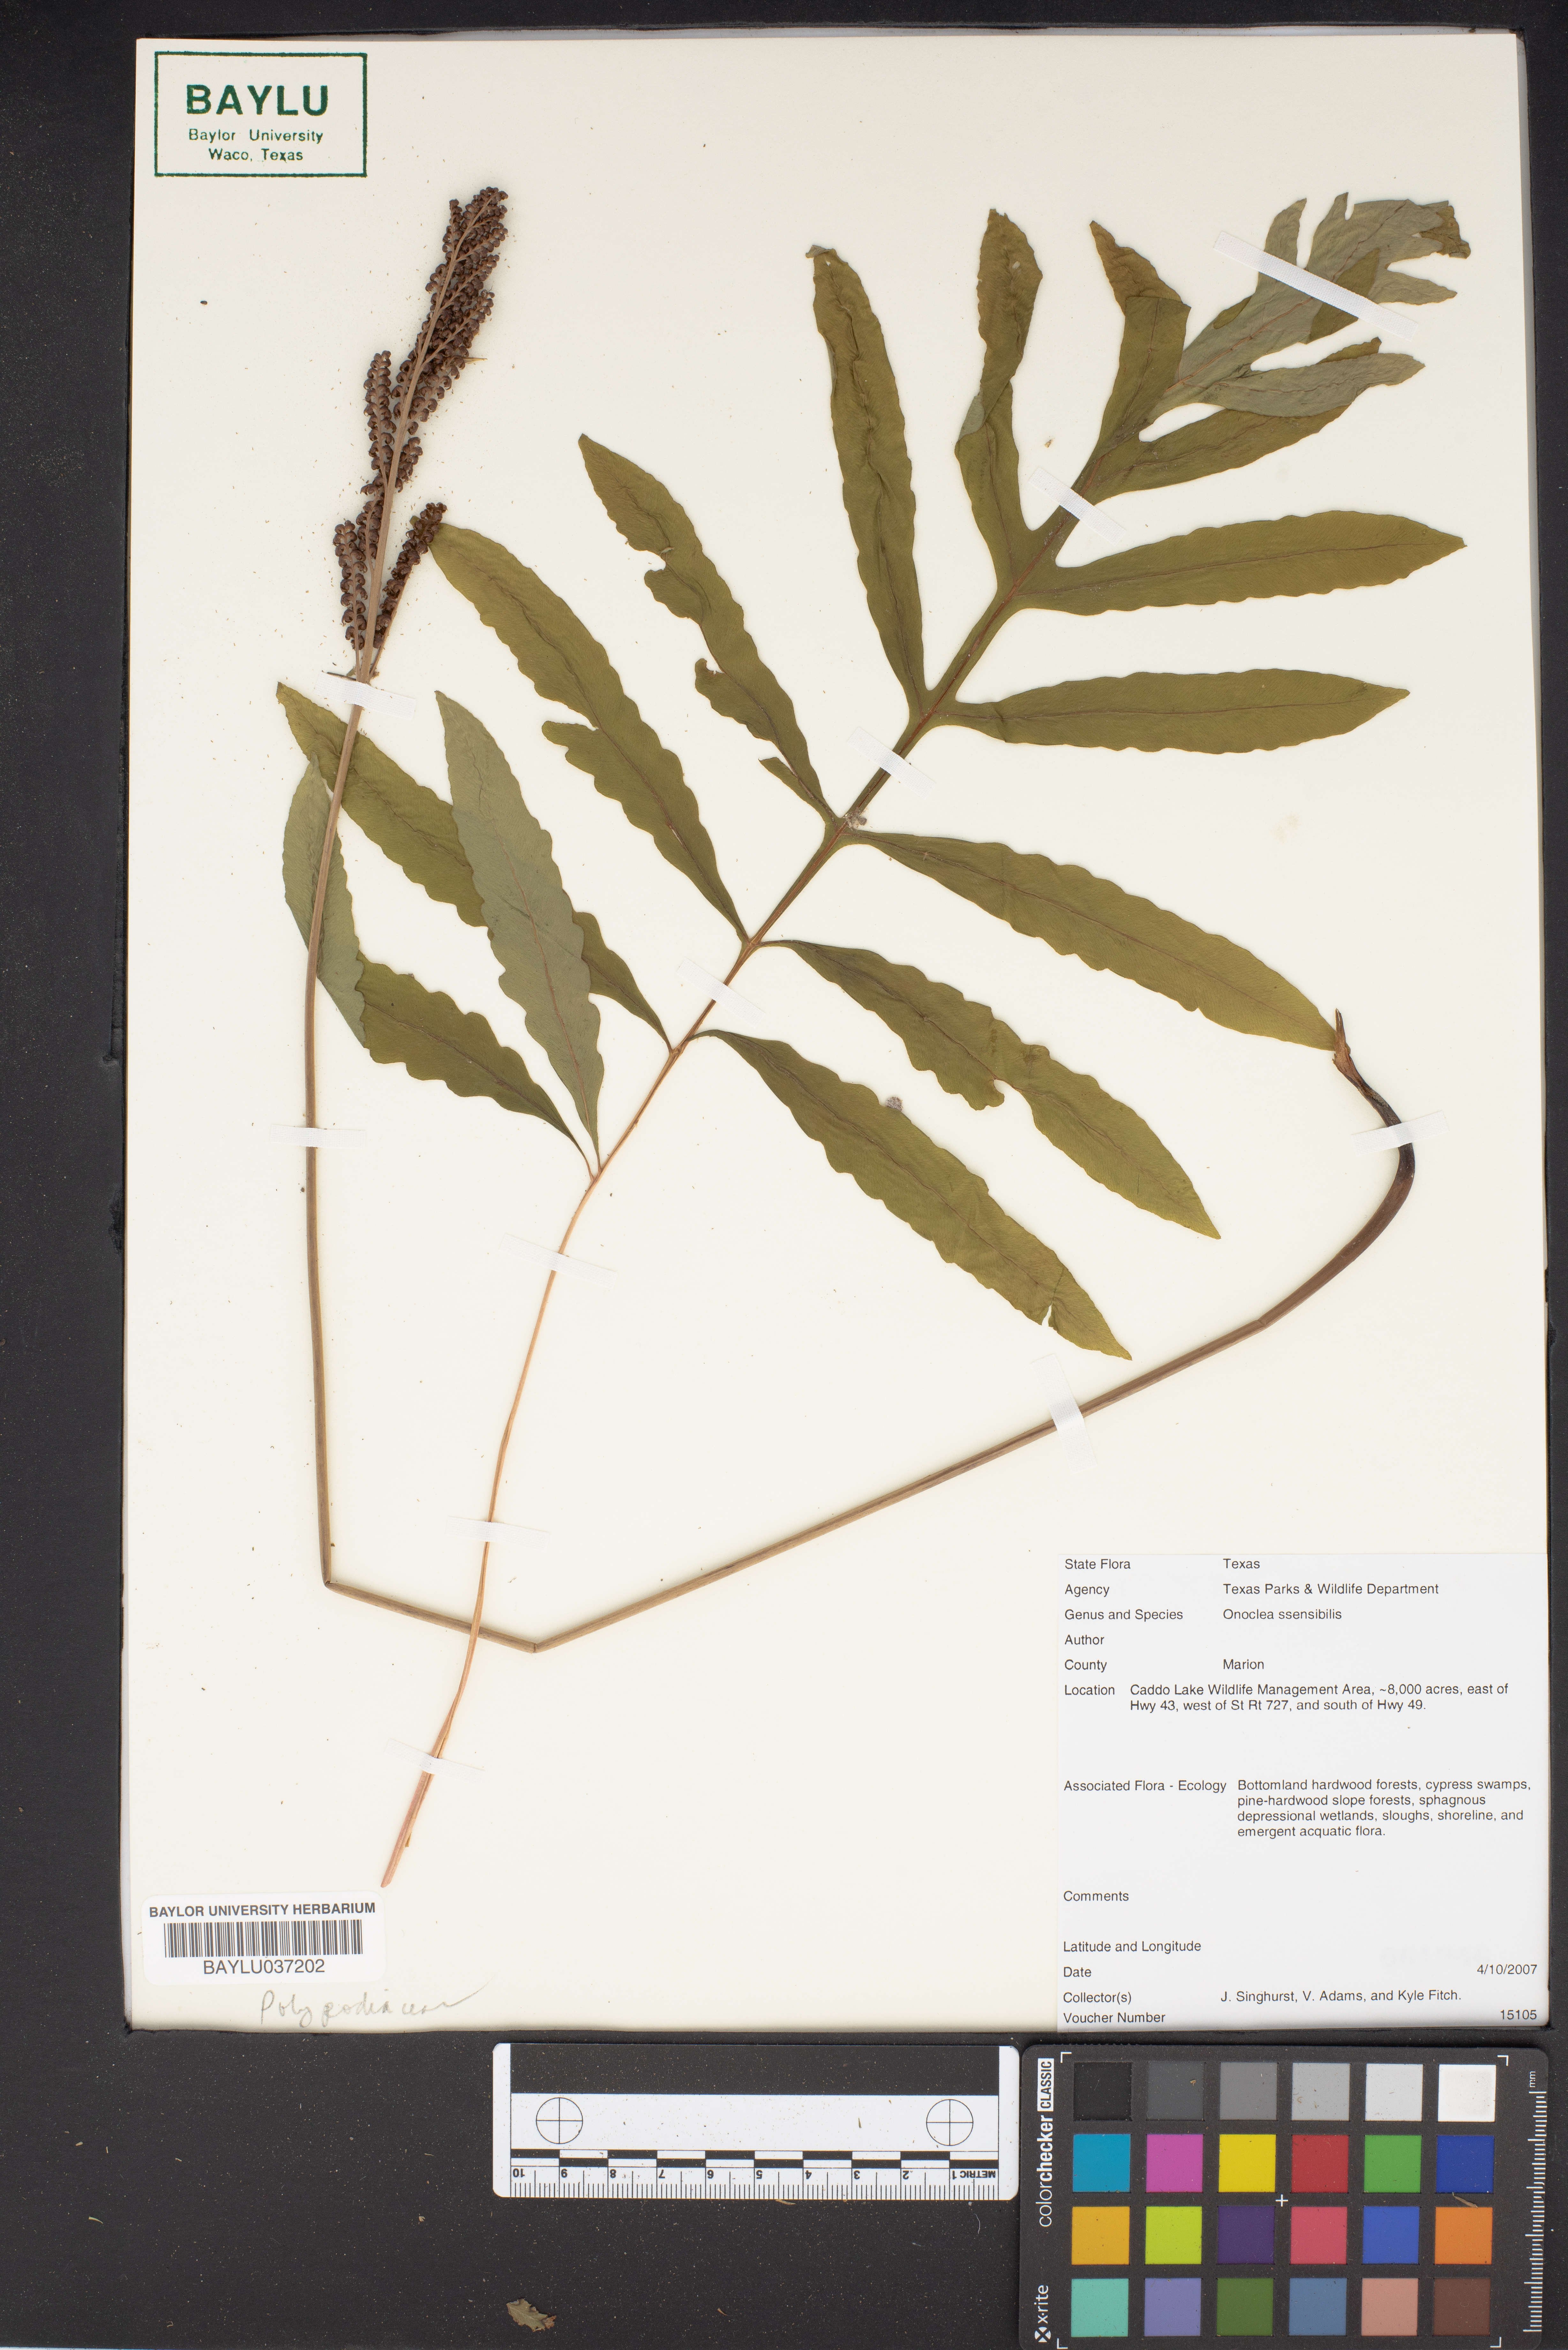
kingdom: Plantae
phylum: Tracheophyta
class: Polypodiopsida
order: Polypodiales
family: Onocleaceae
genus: Onoclea
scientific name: Onoclea sensibilis
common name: Sensitive fern
